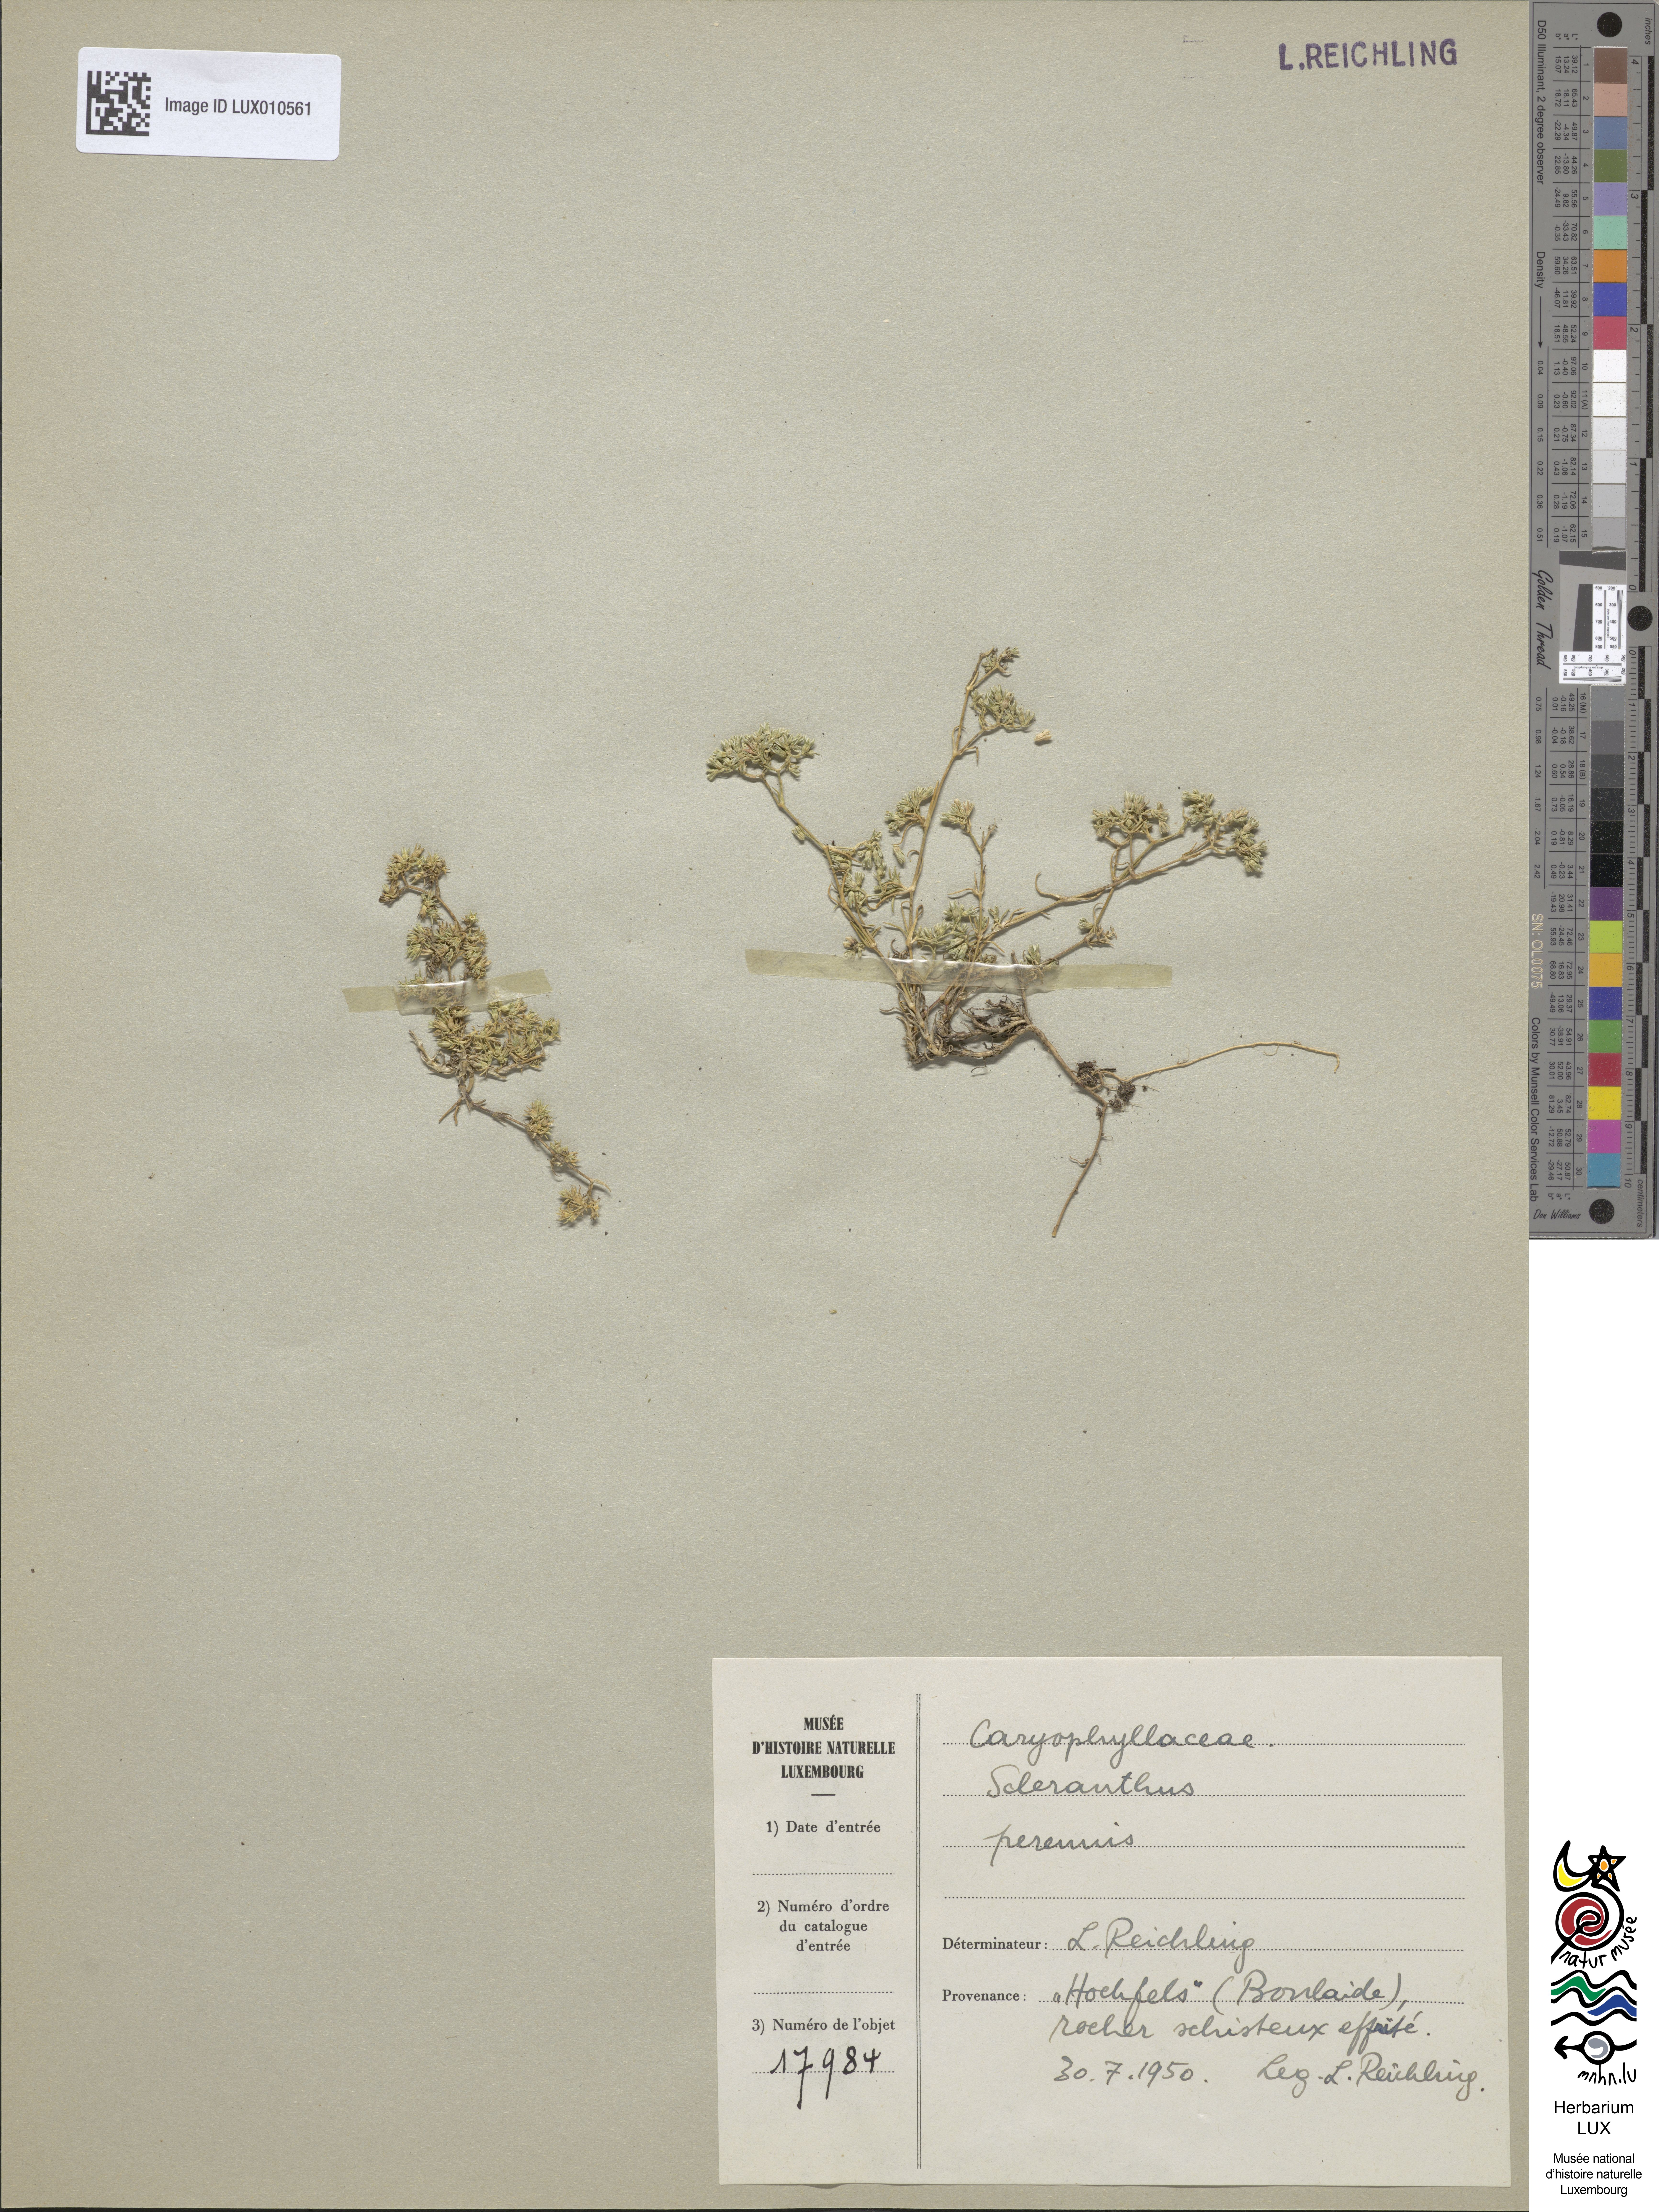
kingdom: Plantae
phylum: Tracheophyta
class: Magnoliopsida
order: Caryophyllales
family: Caryophyllaceae
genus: Scleranthus
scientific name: Scleranthus perennis
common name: Perennial knawel
